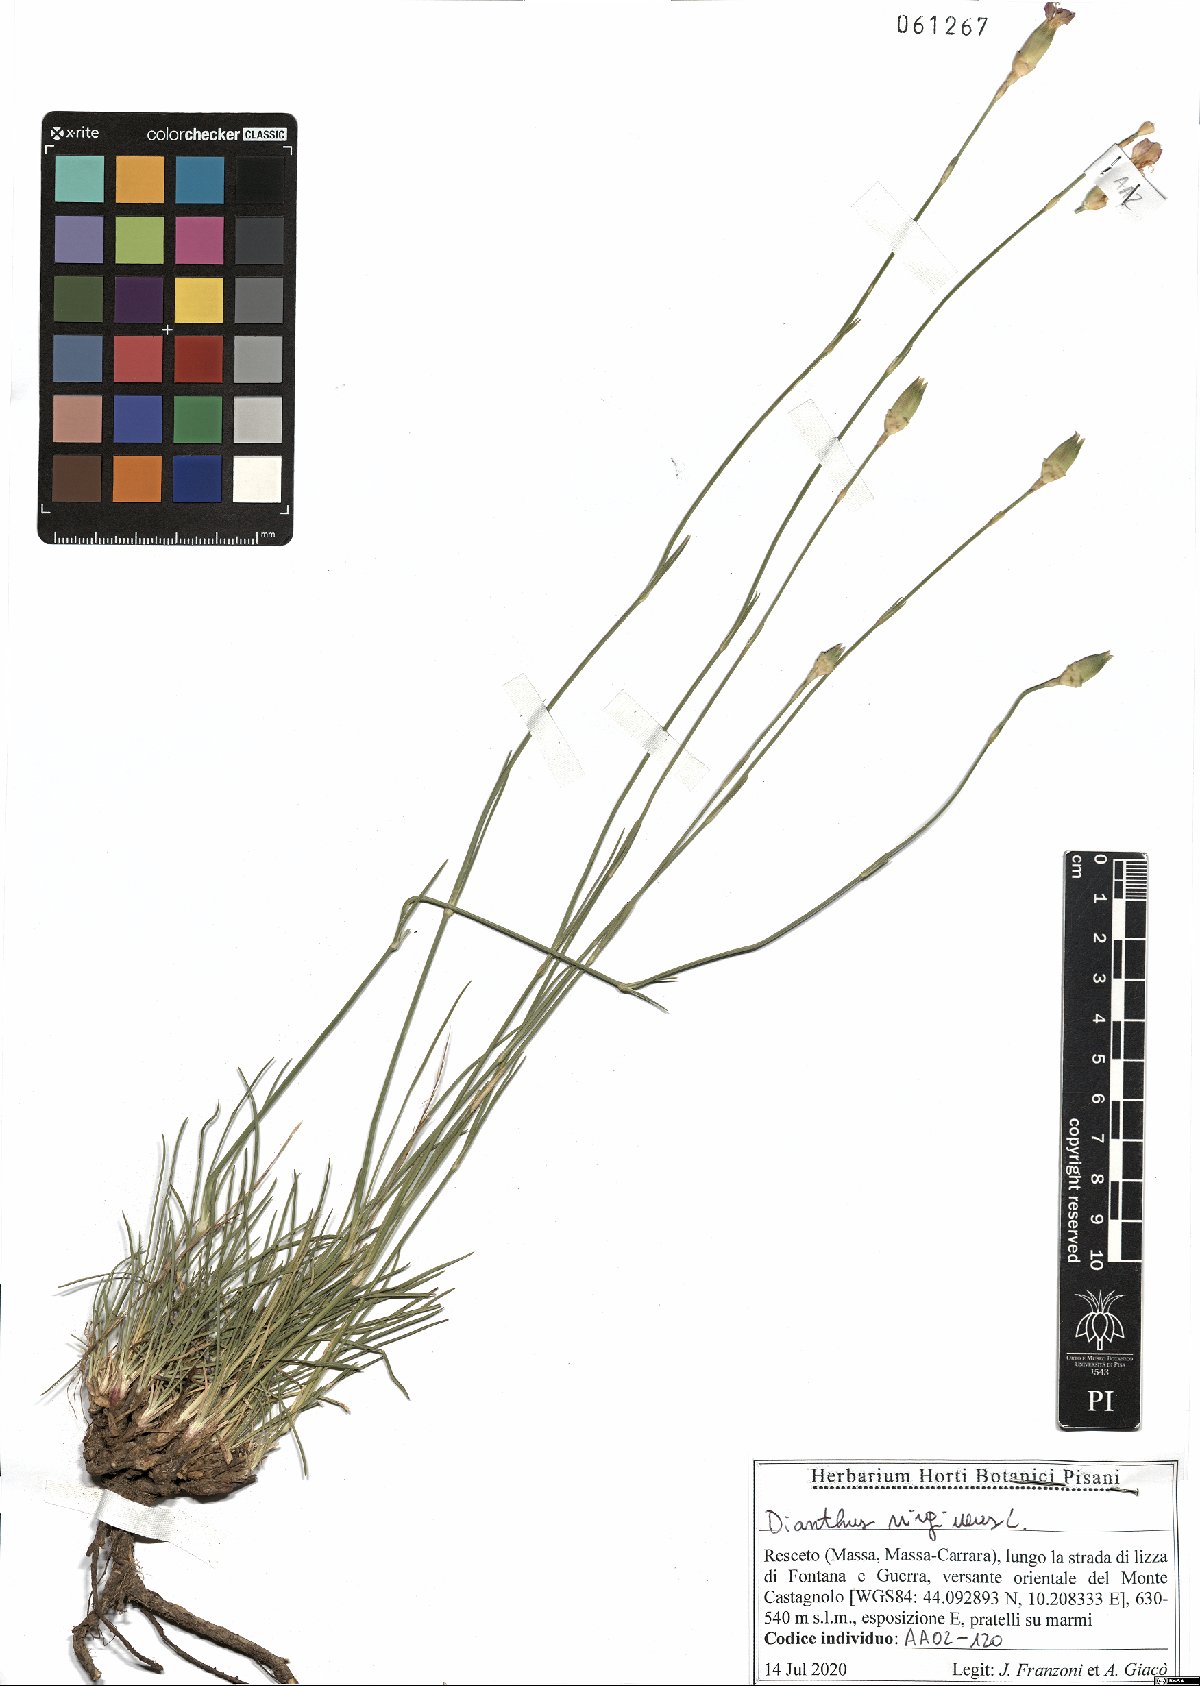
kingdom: Plantae
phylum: Tracheophyta
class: Magnoliopsida
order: Caryophyllales
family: Caryophyllaceae
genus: Dianthus
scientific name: Dianthus virgineus
